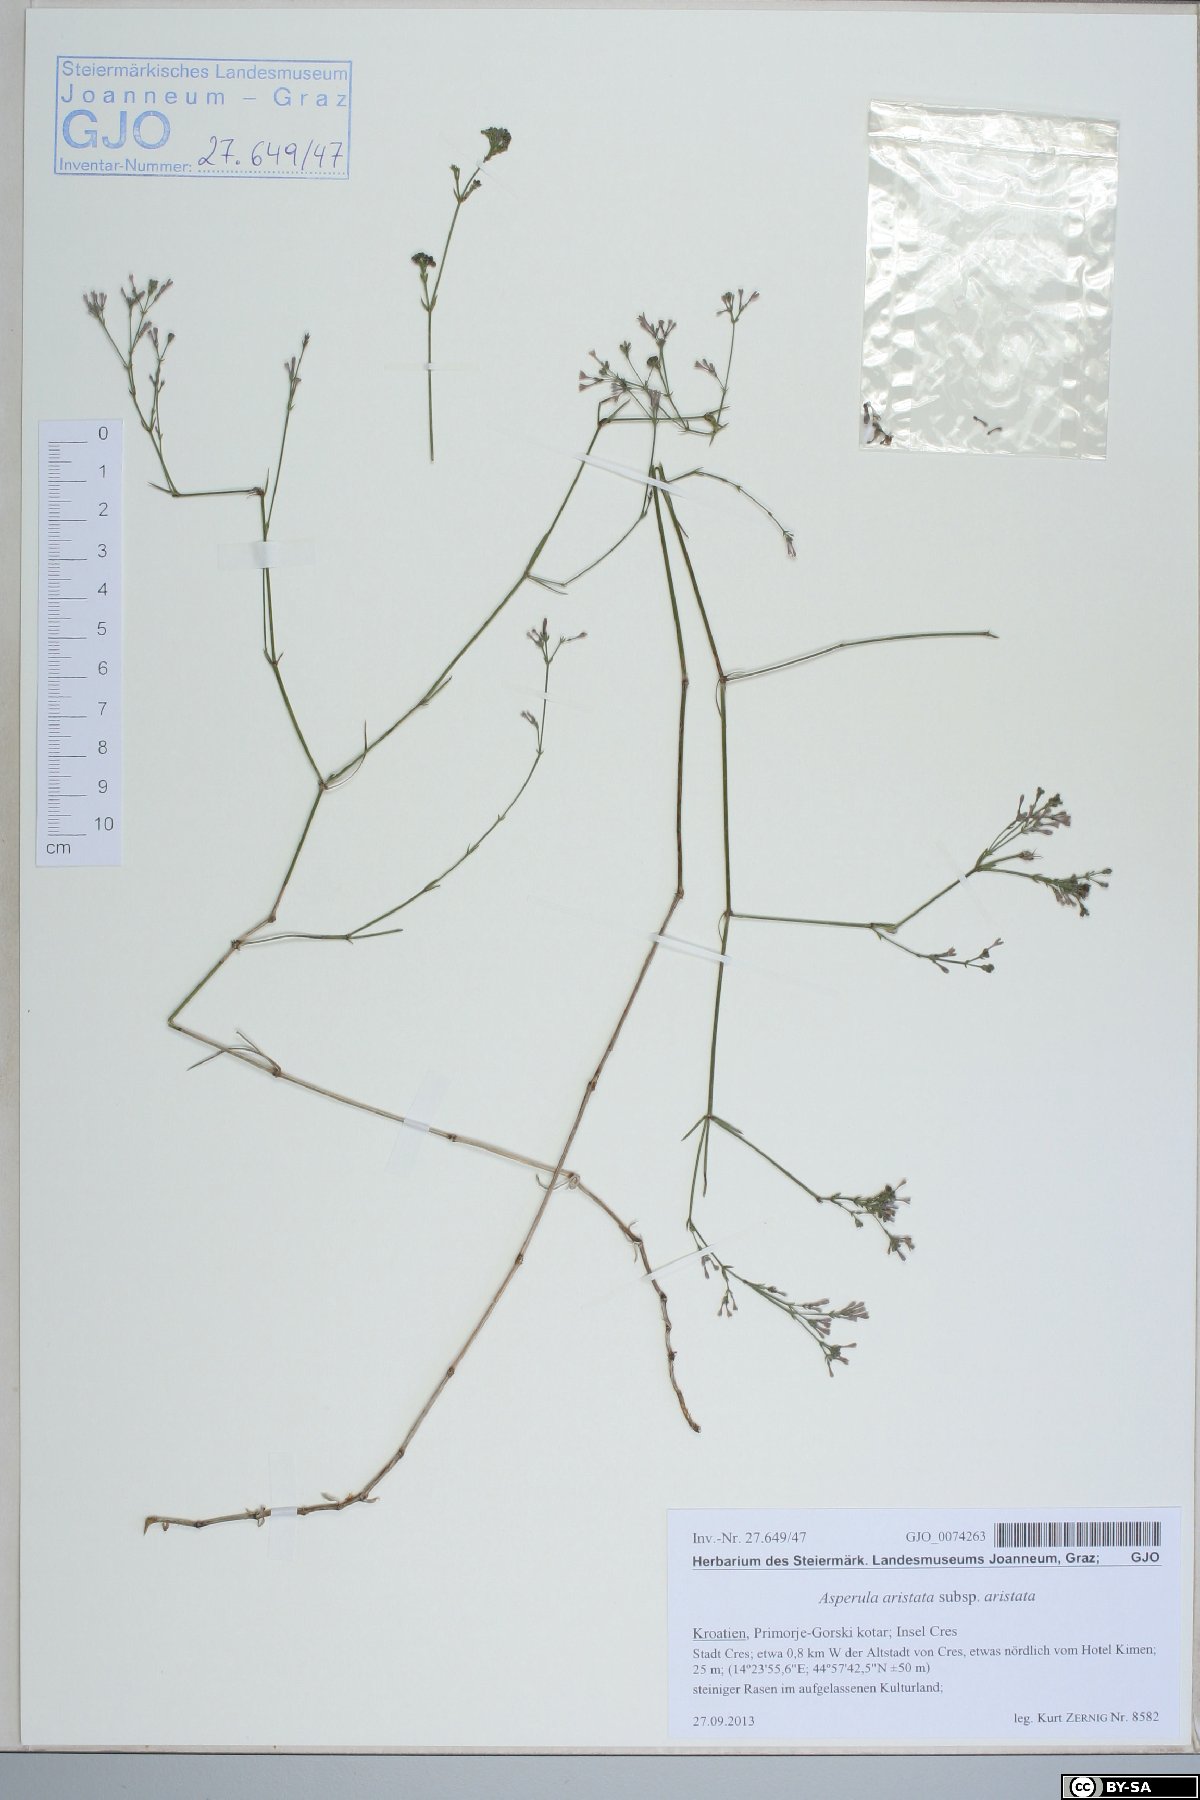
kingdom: Plantae
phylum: Tracheophyta
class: Magnoliopsida
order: Gentianales
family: Rubiaceae
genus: Cynanchica
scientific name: Cynanchica aristata
